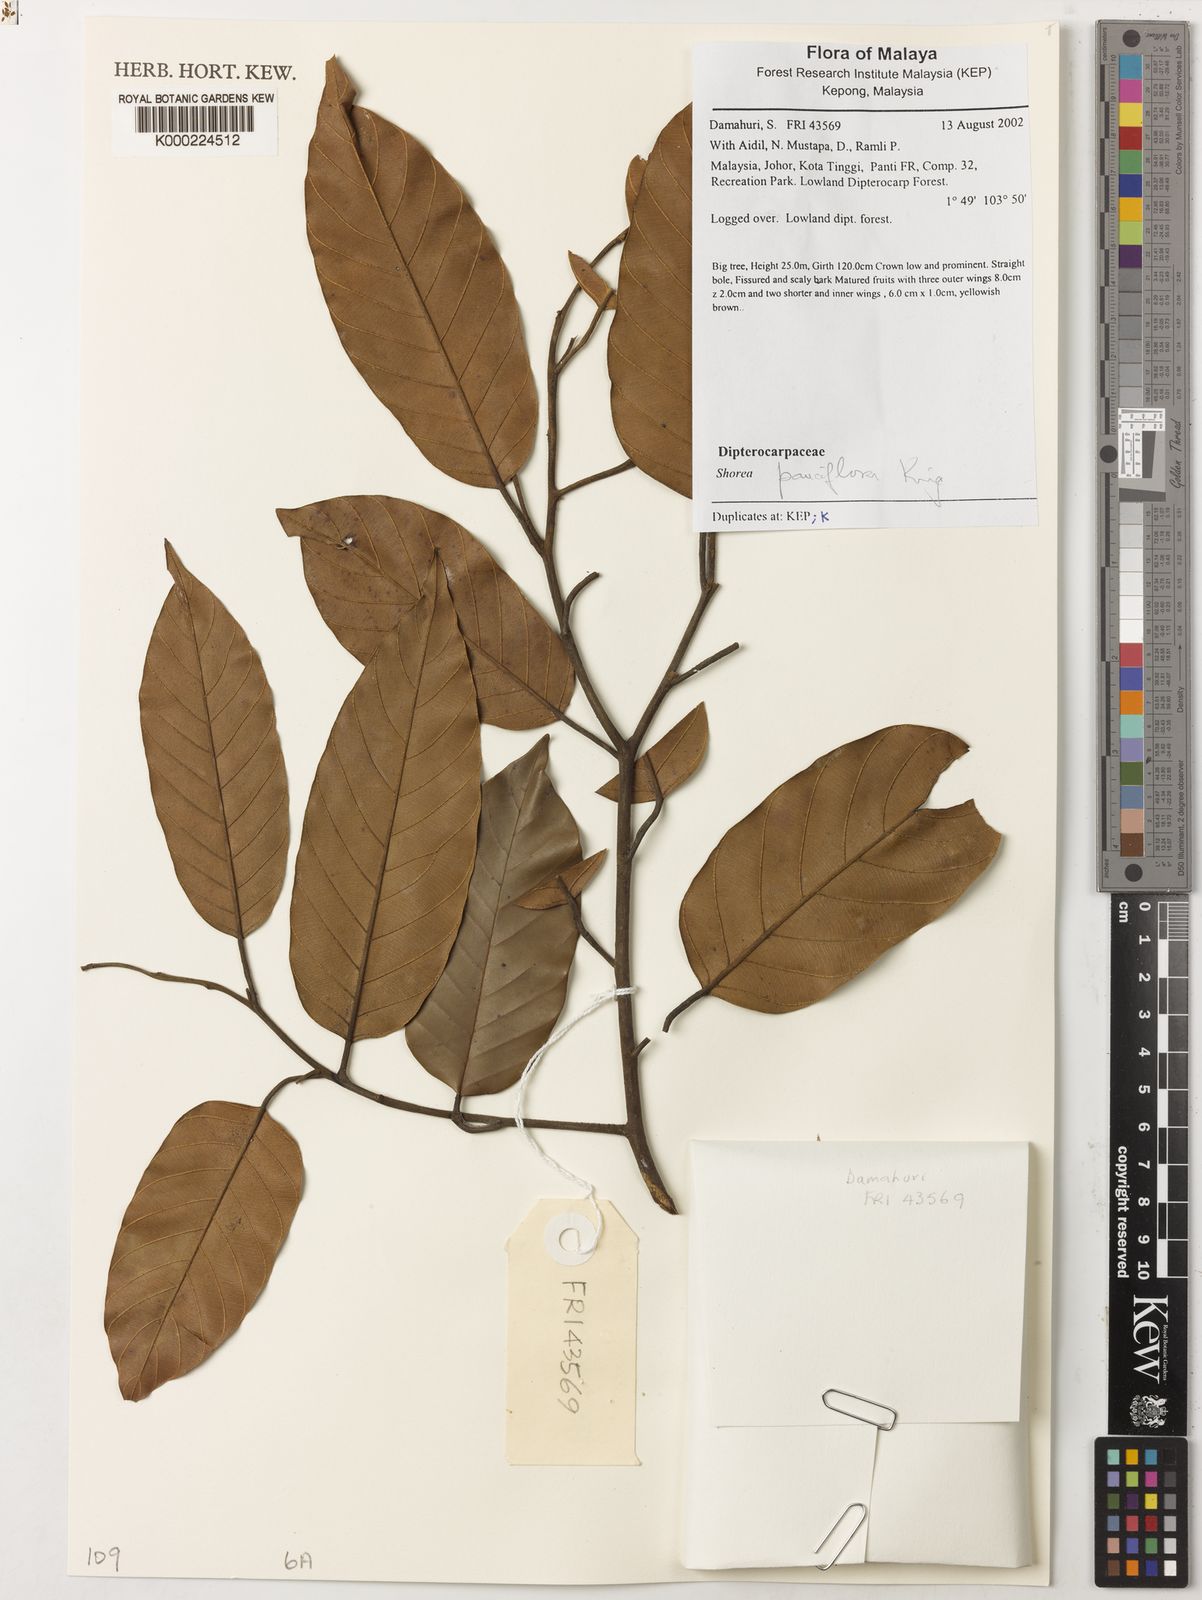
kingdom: Plantae
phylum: Tracheophyta
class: Magnoliopsida
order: Malvales
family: Dipterocarpaceae
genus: Shorea
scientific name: Shorea pauciflora
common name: Dark red meranti
